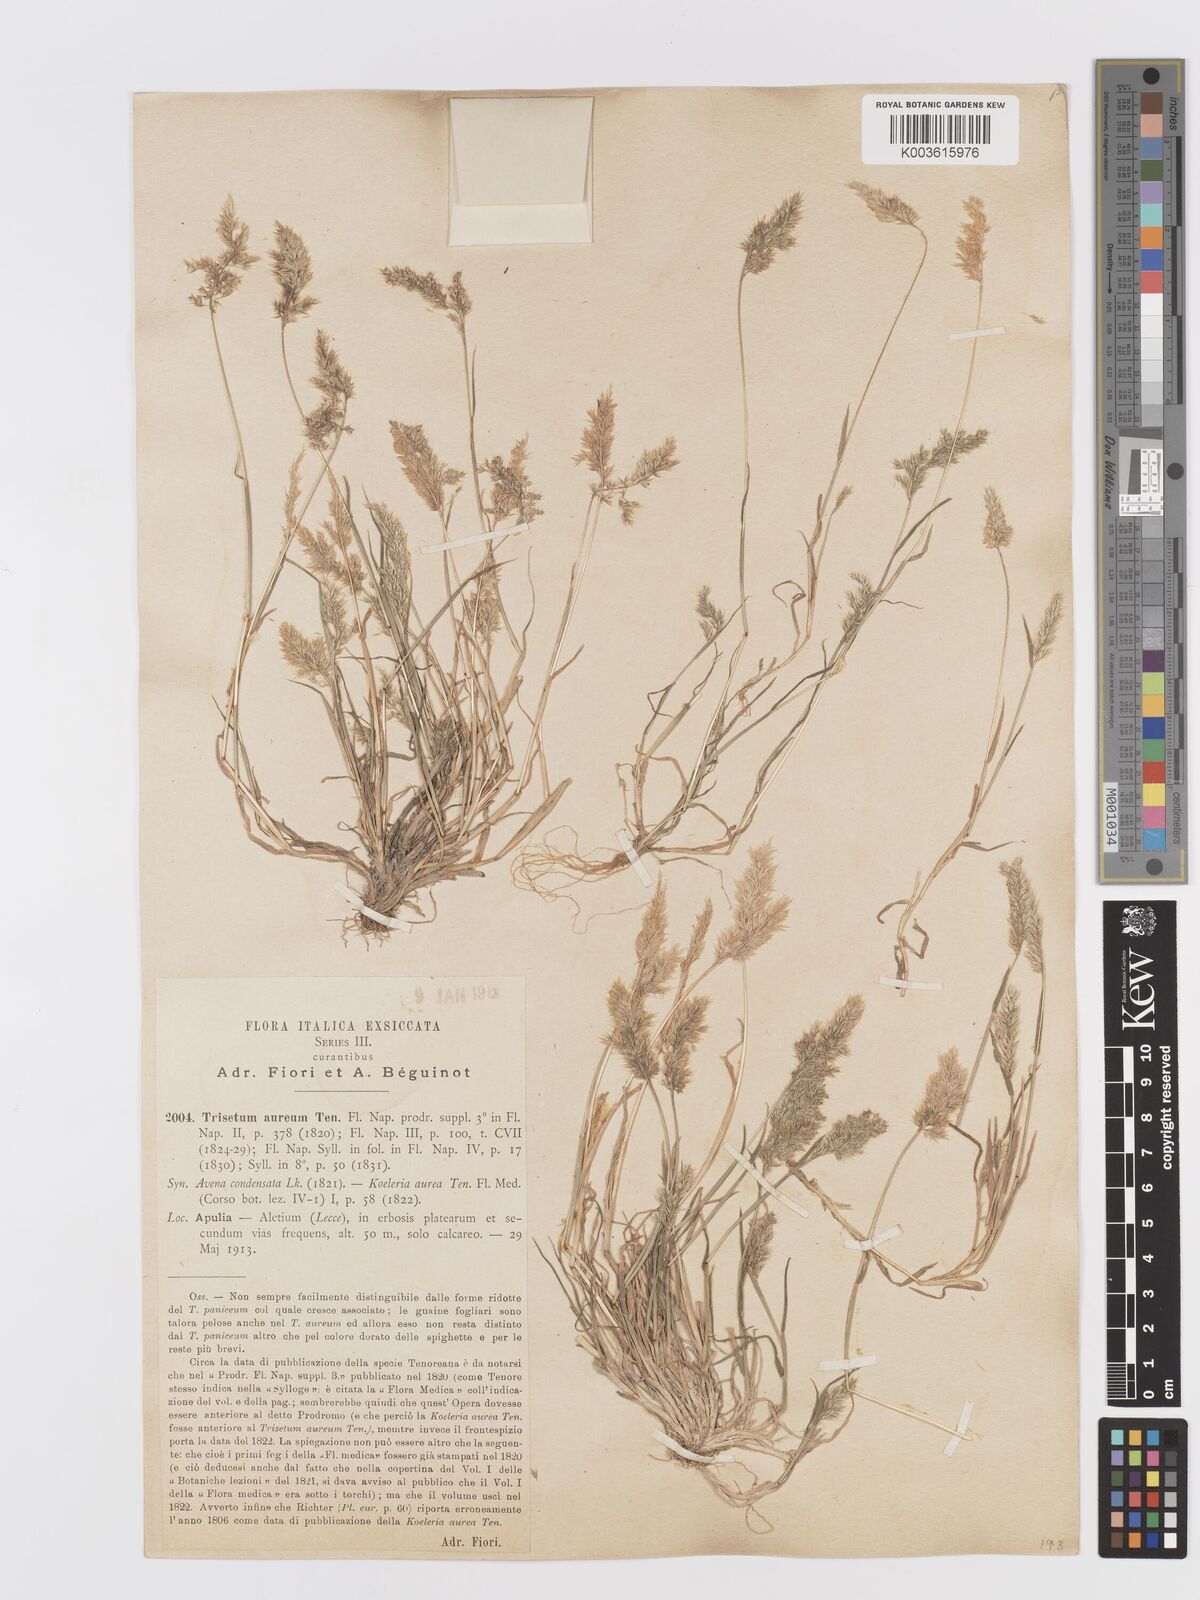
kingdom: Plantae
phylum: Tracheophyta
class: Liliopsida
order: Poales
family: Poaceae
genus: Trisetaria
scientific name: Trisetaria aurea
